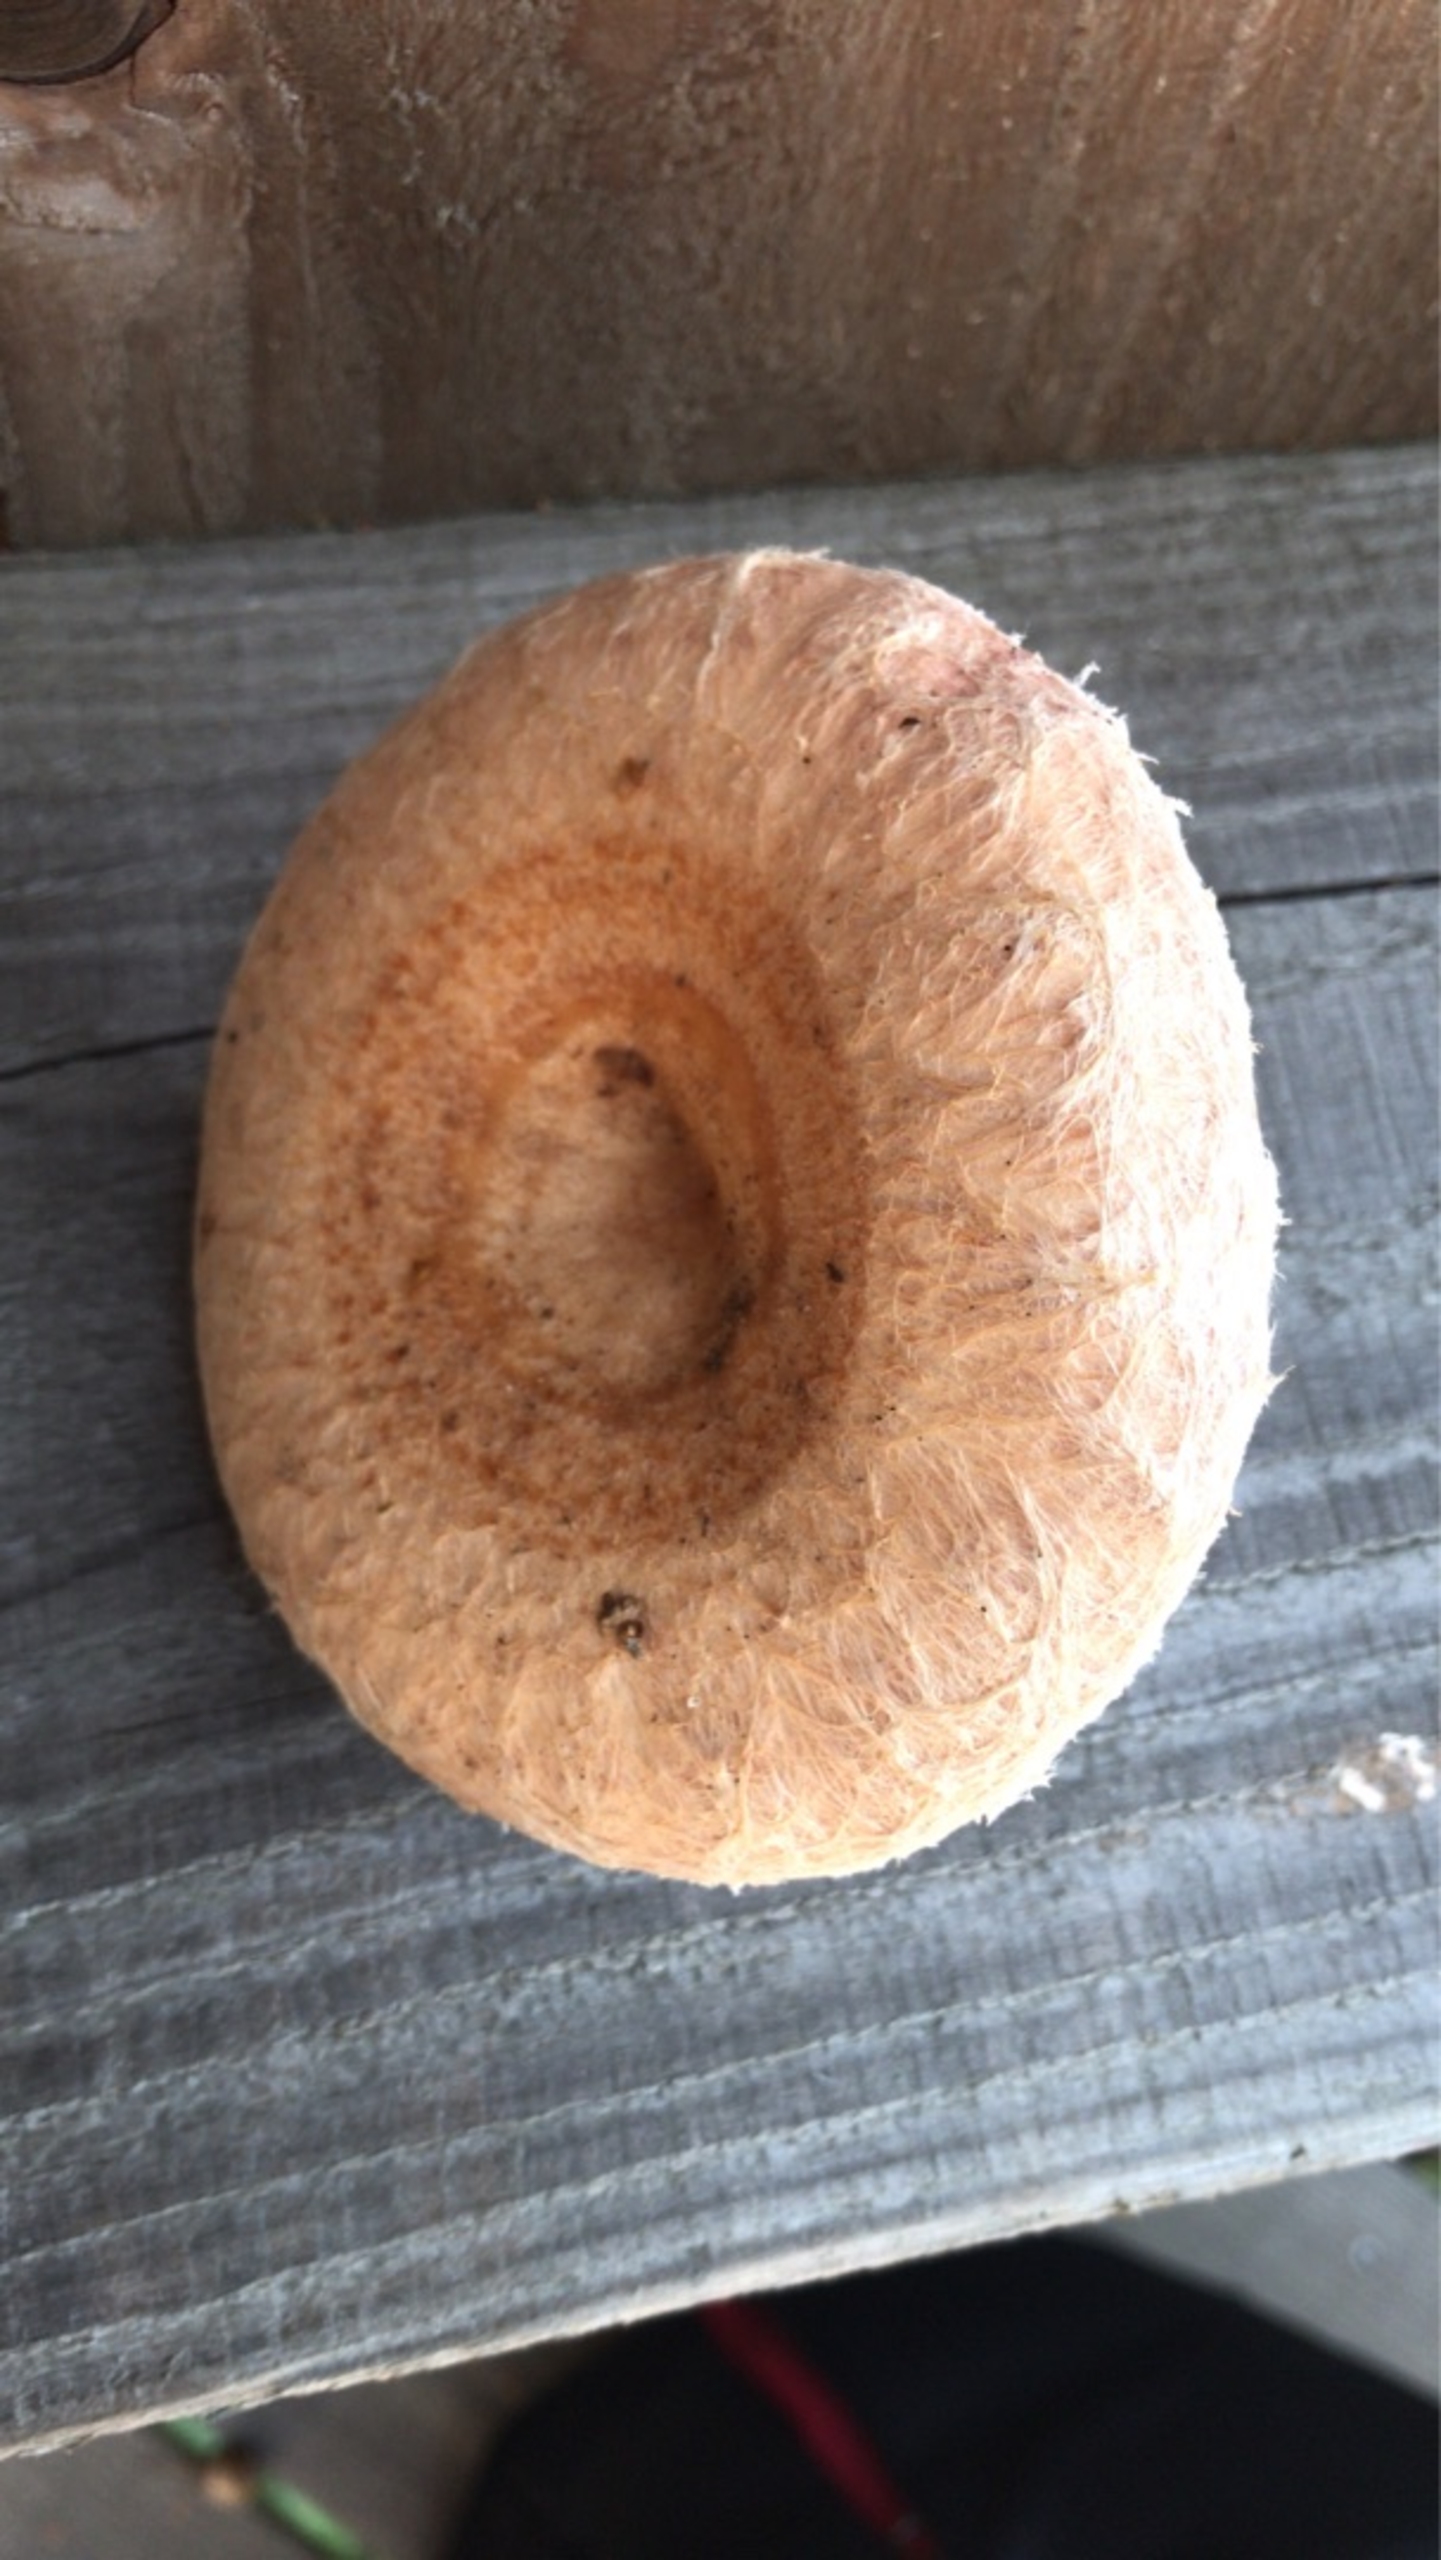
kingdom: Fungi
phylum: Basidiomycota
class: Agaricomycetes
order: Russulales
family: Russulaceae
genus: Lactarius
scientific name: Lactarius torminosus
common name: Skægget mælkehat
